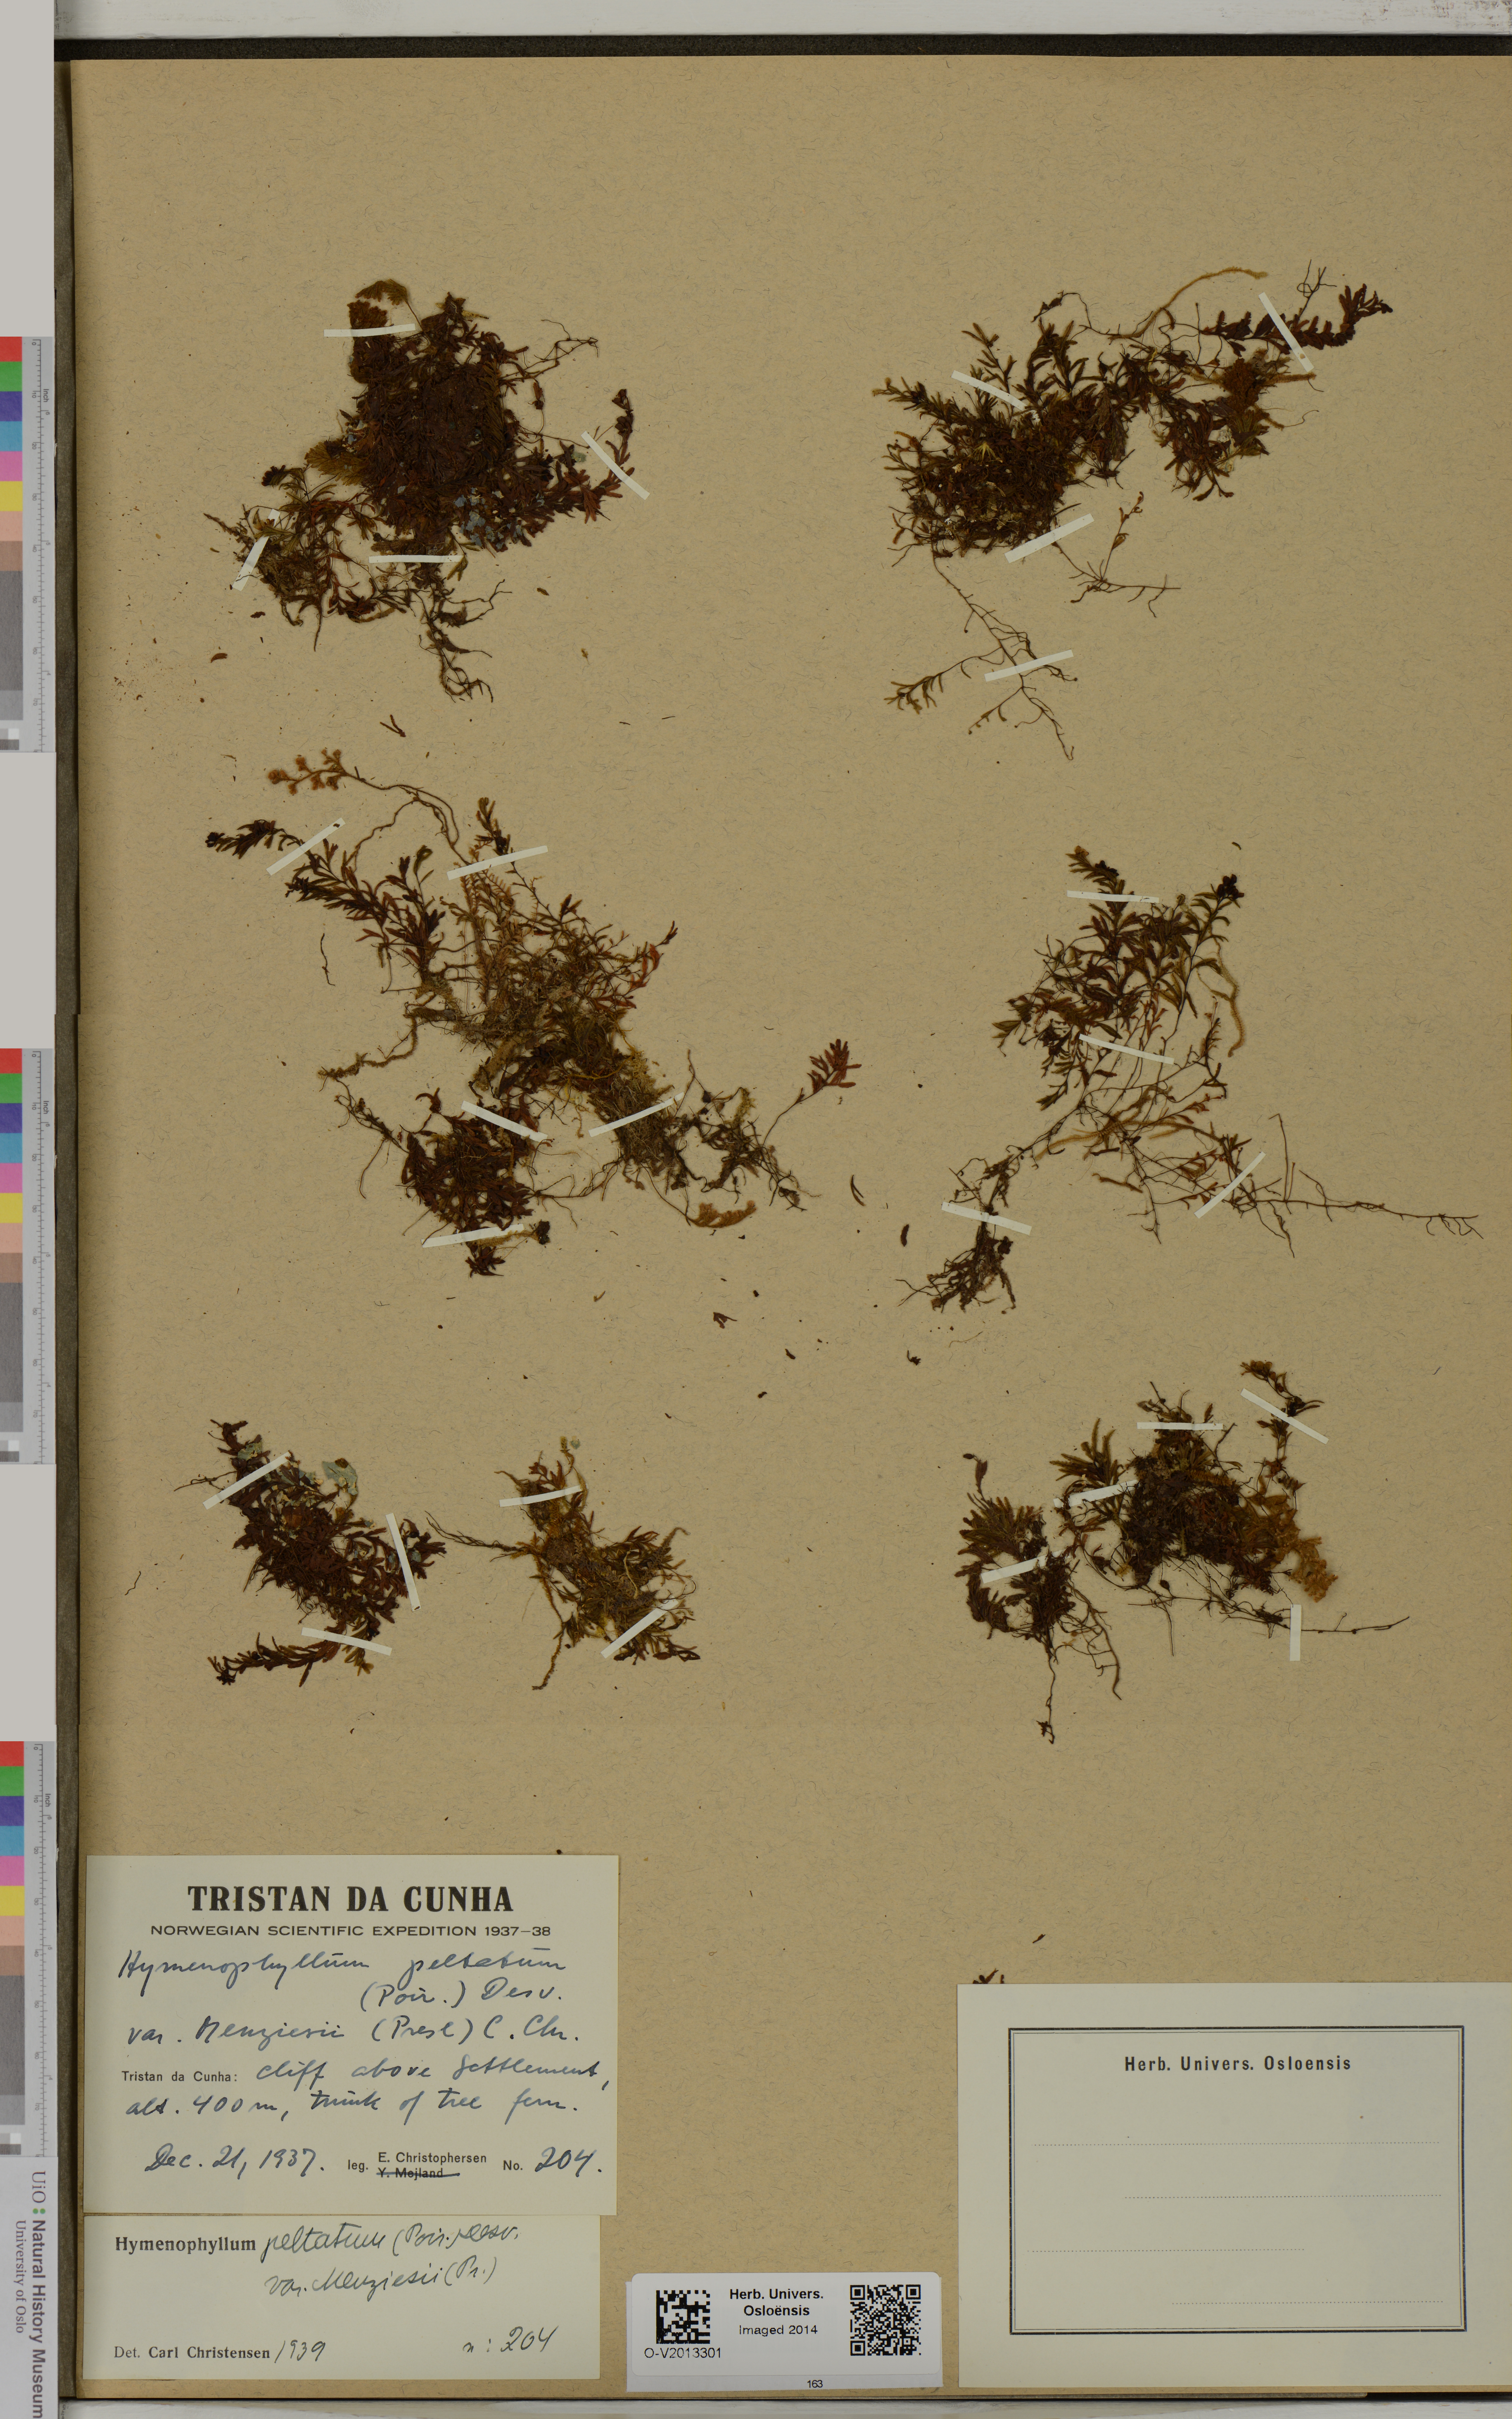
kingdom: Plantae
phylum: Tracheophyta
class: Polypodiopsida
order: Hymenophyllales
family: Hymenophyllaceae
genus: Hymenophyllum
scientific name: Hymenophyllum peltatum
